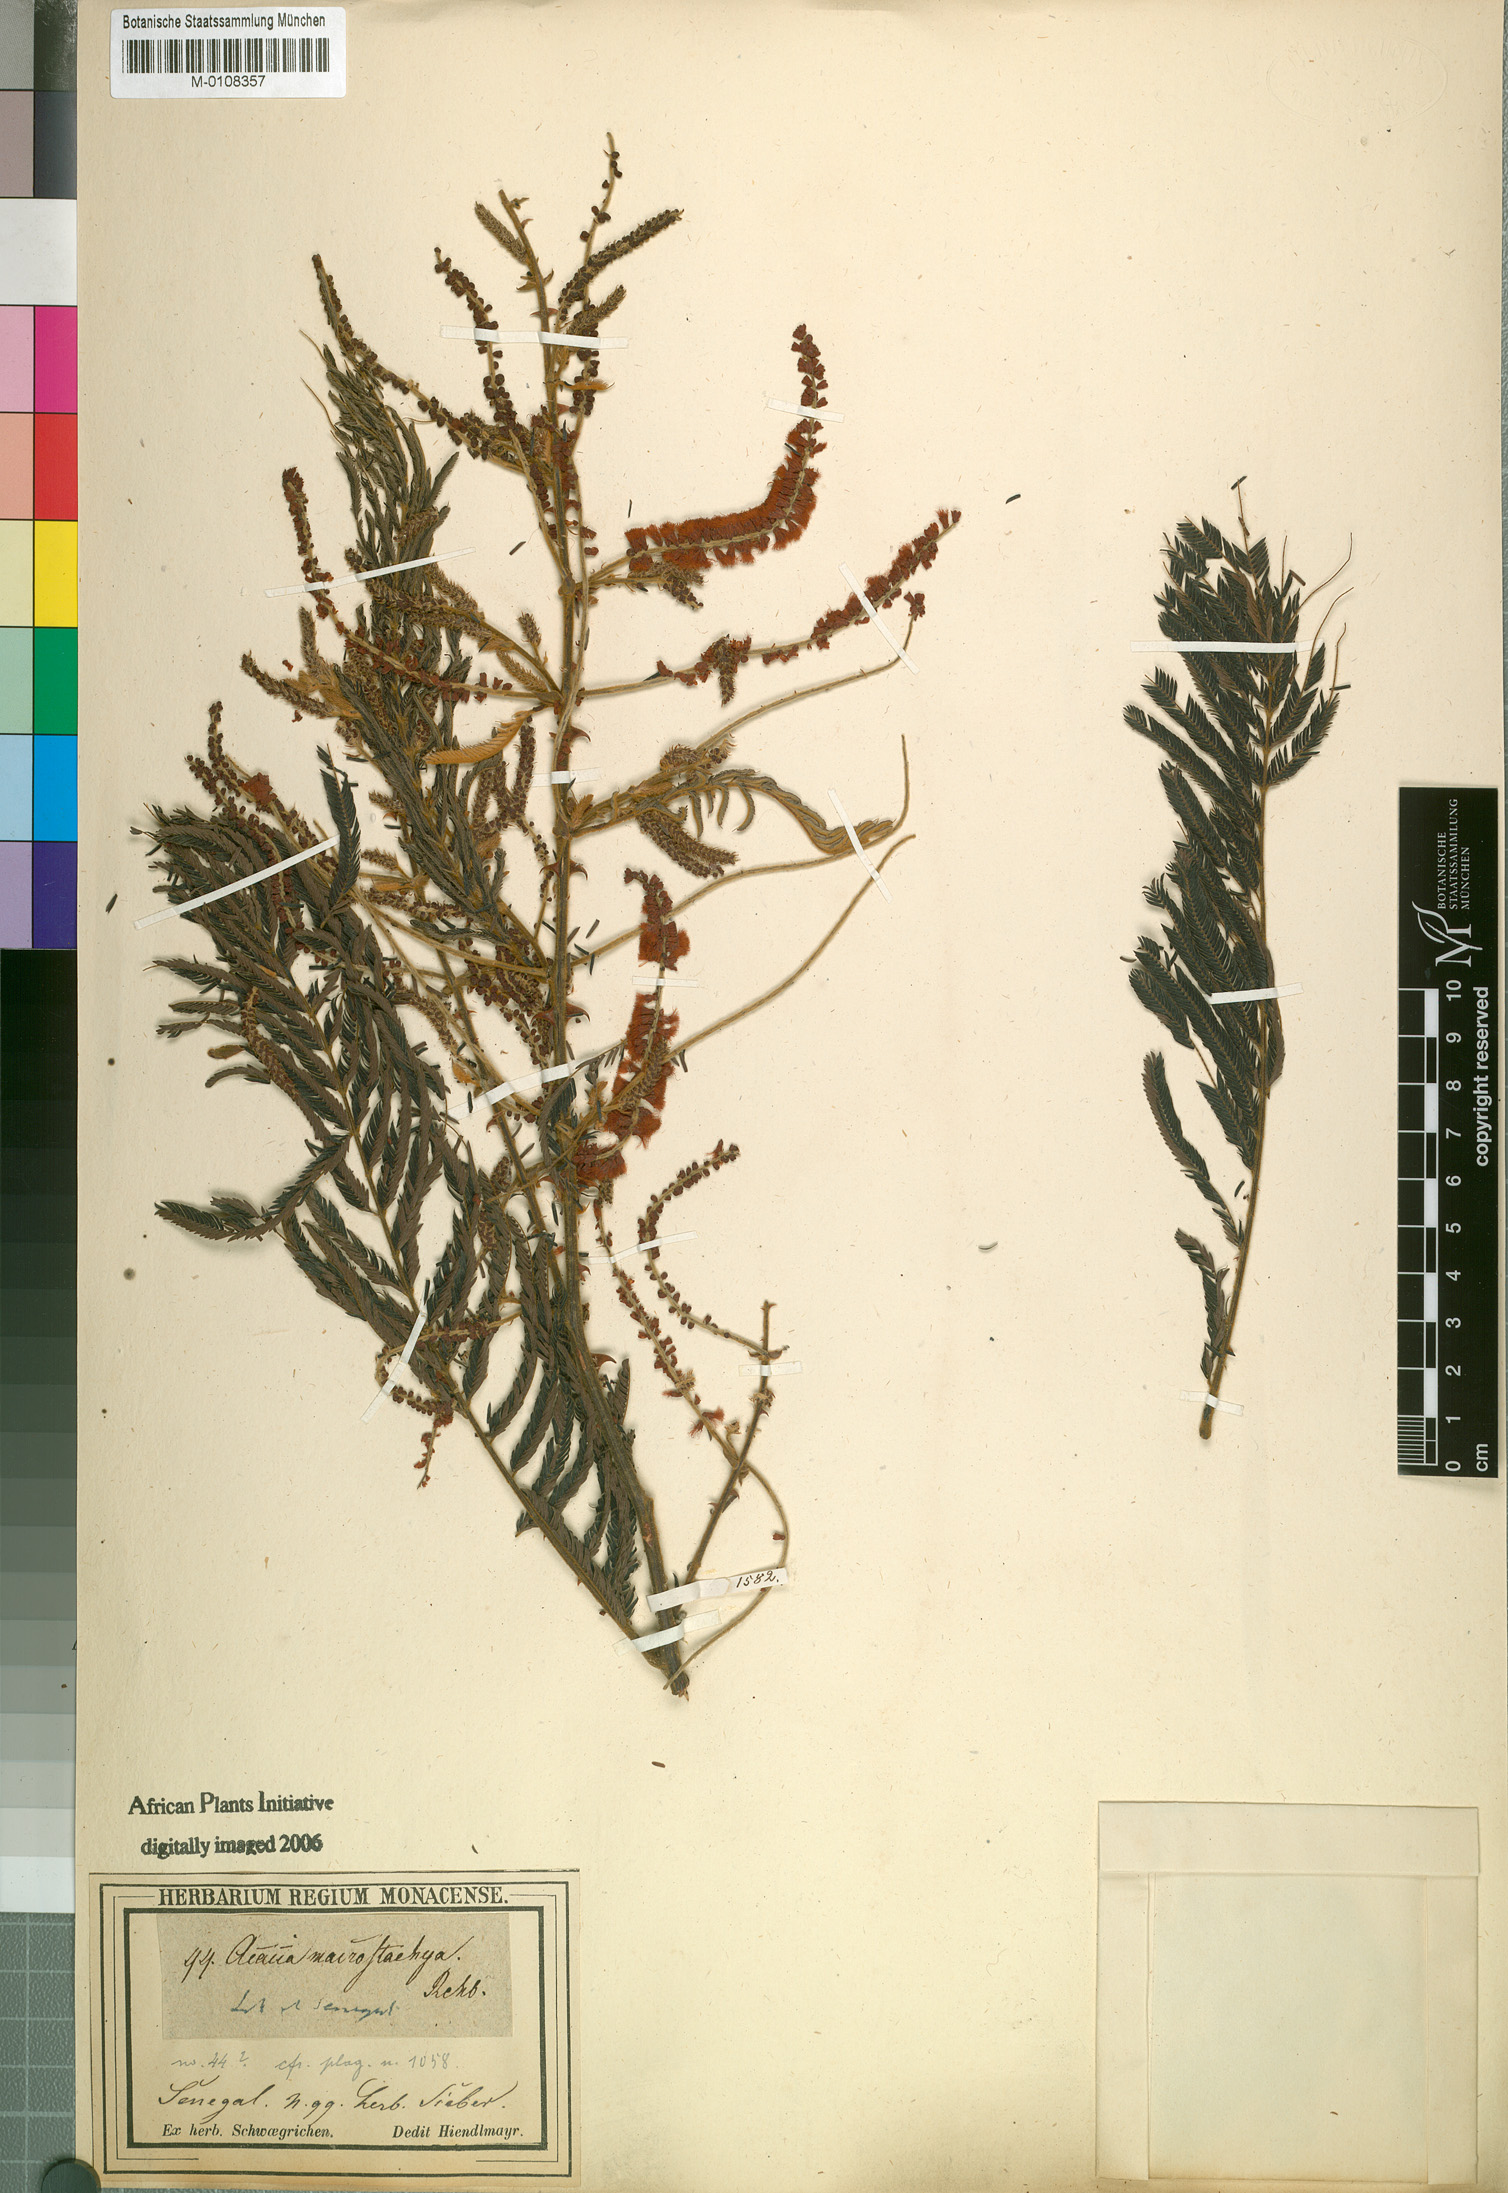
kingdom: Plantae
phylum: Tracheophyta
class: Magnoliopsida
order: Fabales
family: Fabaceae
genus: Senegalia
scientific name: Senegalia macrostachya
